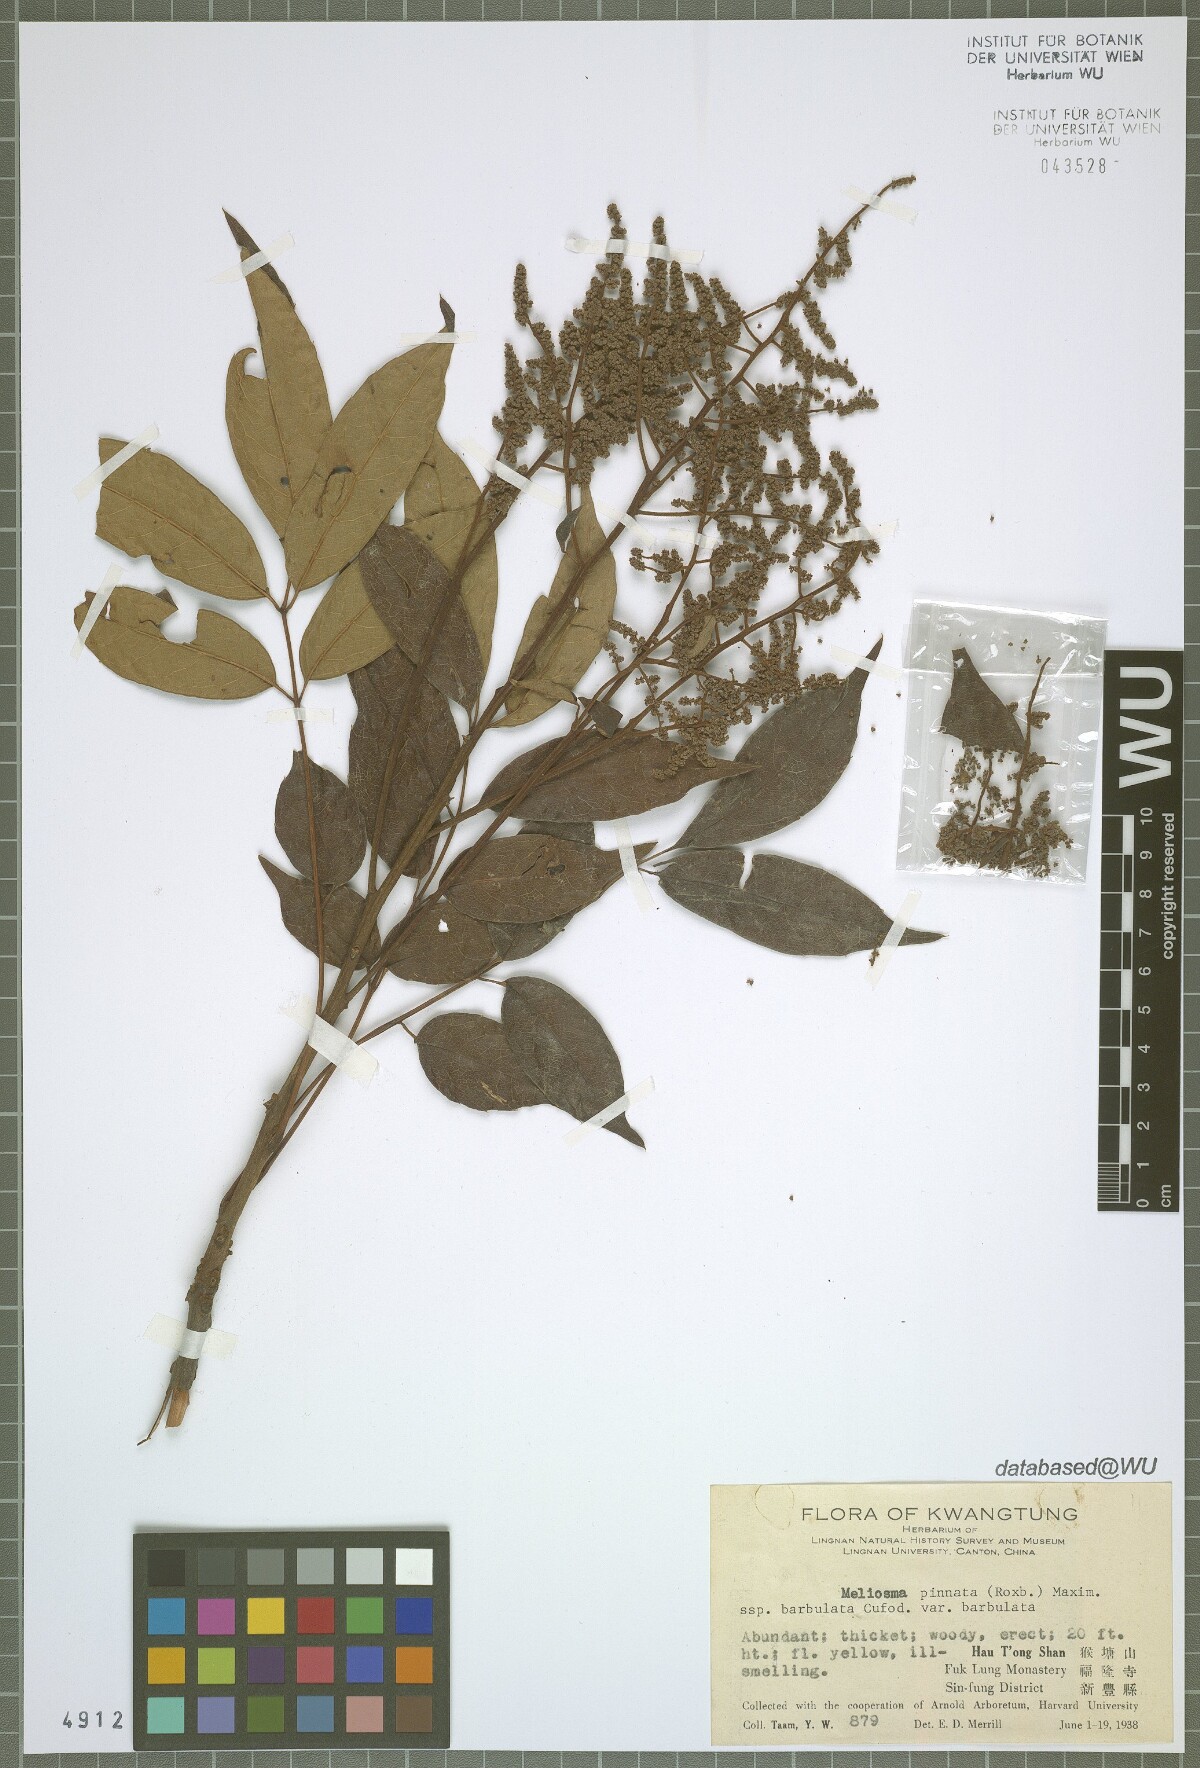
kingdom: Plantae
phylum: Tracheophyta
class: Magnoliopsida
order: Proteales
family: Sabiaceae
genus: Meliosma
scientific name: Meliosma rhoifolia
